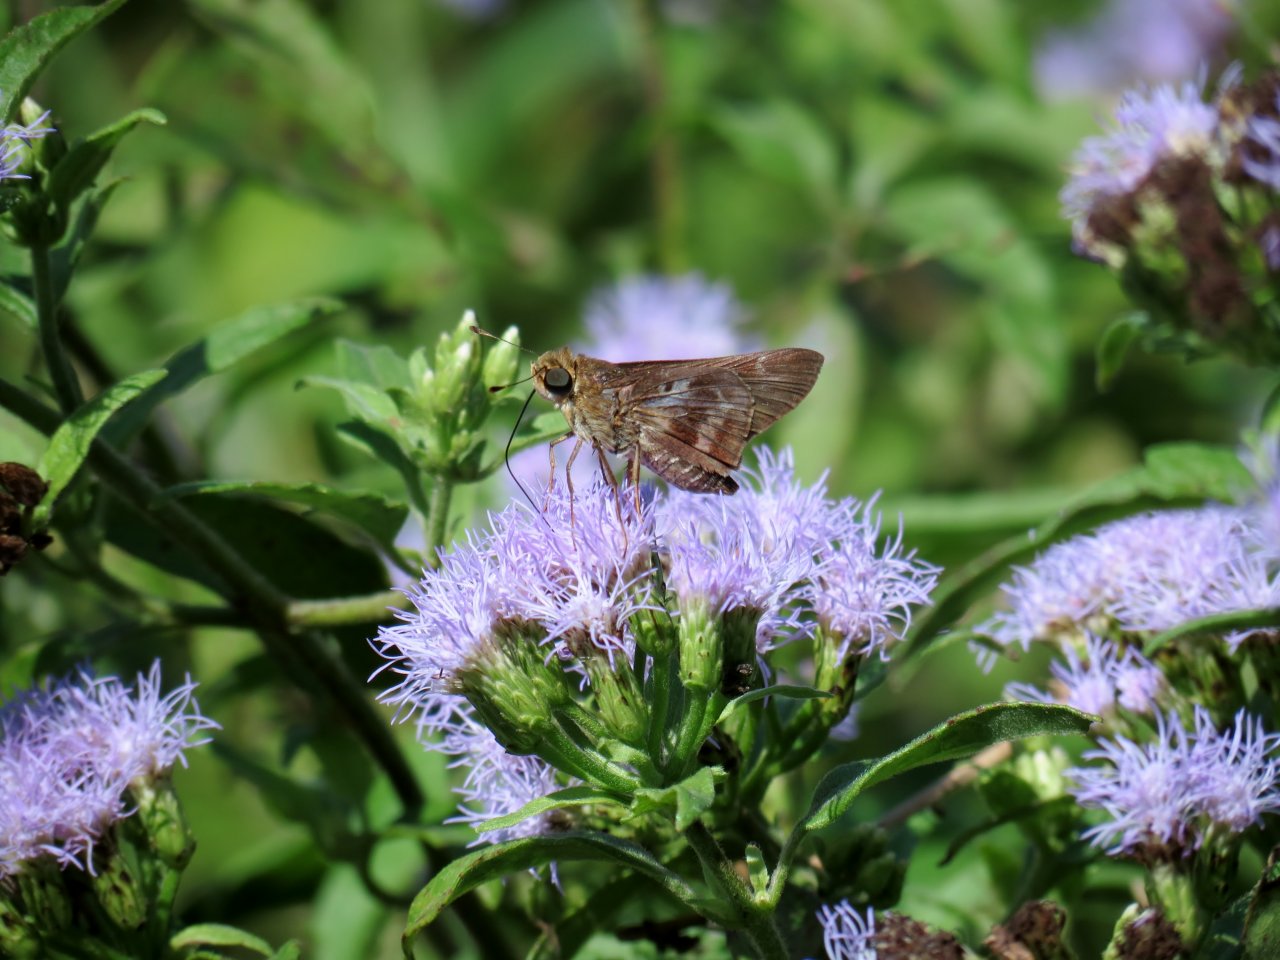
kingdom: Animalia
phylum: Arthropoda
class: Insecta
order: Lepidoptera
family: Hesperiidae
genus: Nyctelius
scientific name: Nyctelius nyctelius
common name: Violet-banded Skipper
